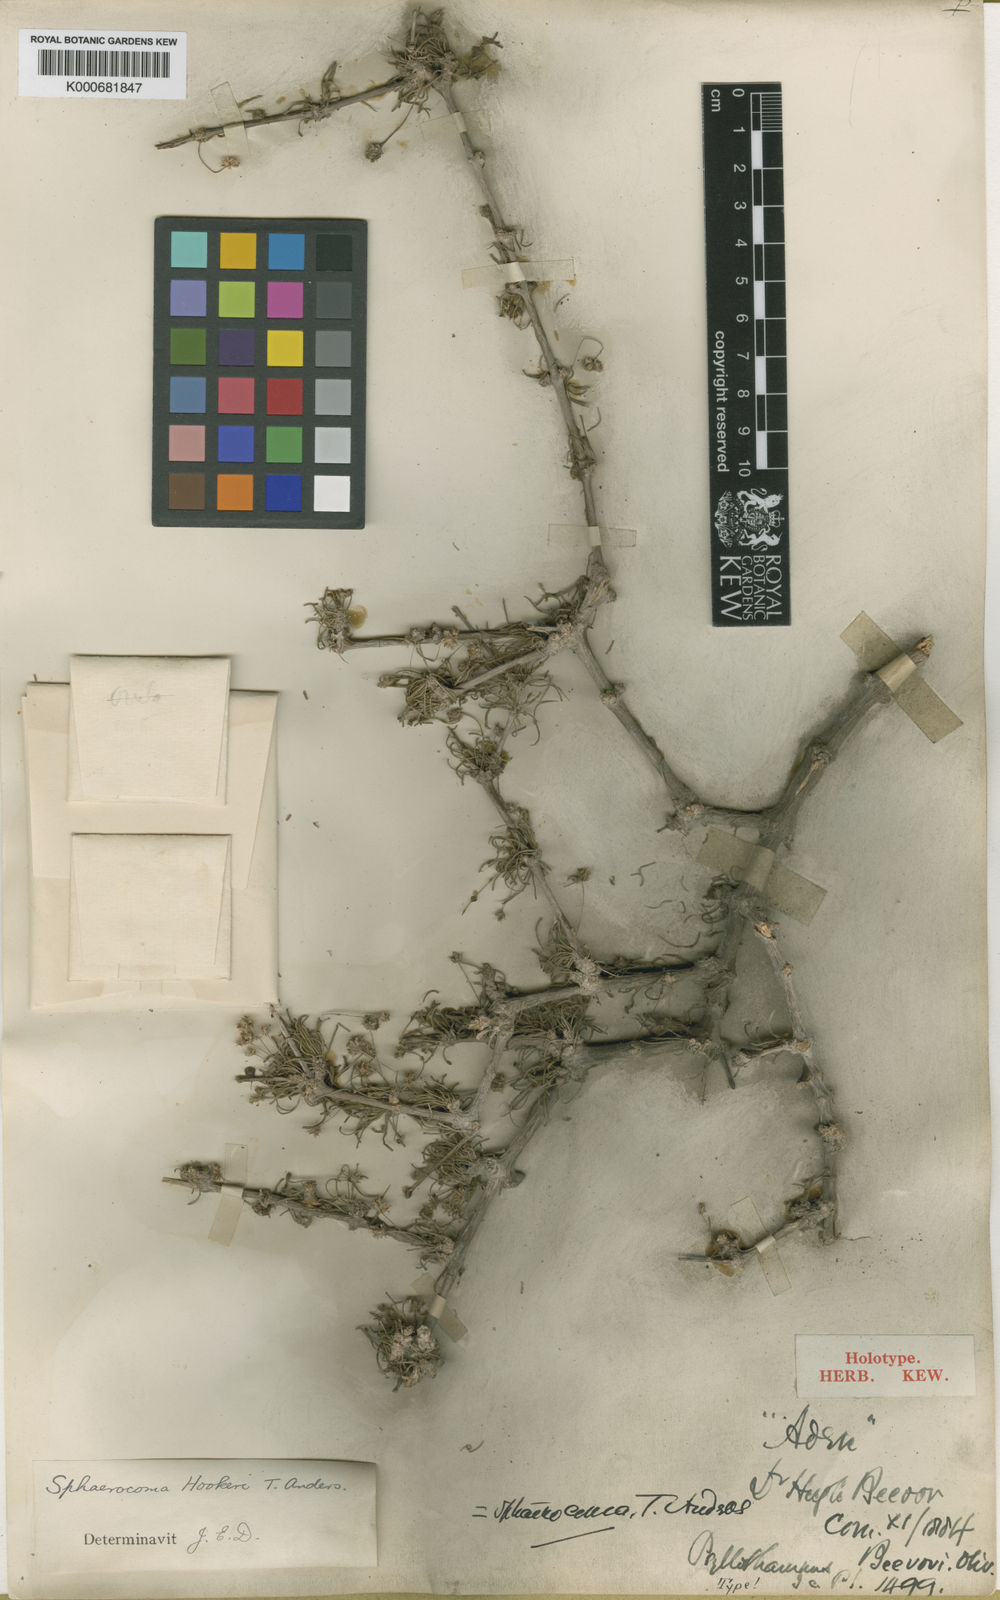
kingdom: Plantae
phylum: Tracheophyta
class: Magnoliopsida
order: Caryophyllales
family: Caryophyllaceae
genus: Sphaerocoma
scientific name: Sphaerocoma hookeri
